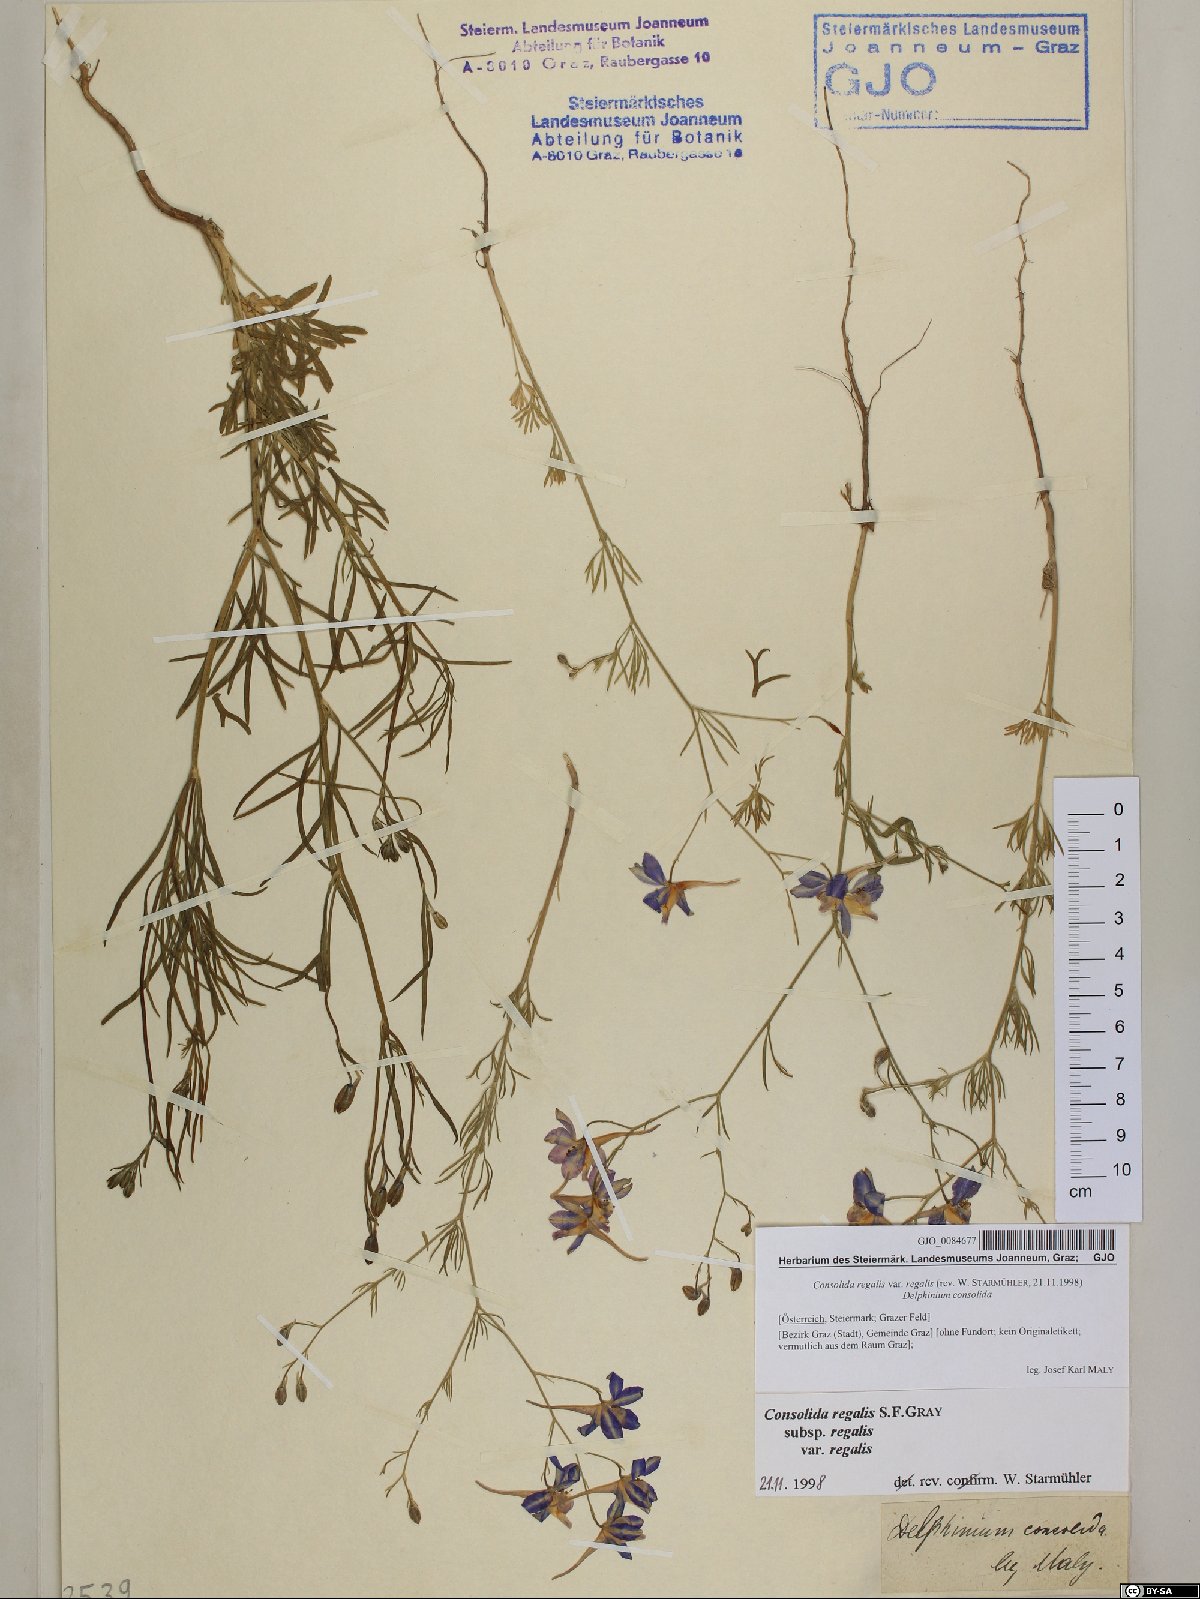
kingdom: Plantae
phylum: Tracheophyta
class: Magnoliopsida
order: Ranunculales
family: Ranunculaceae
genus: Delphinium
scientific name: Delphinium consolida
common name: Branching larkspur
